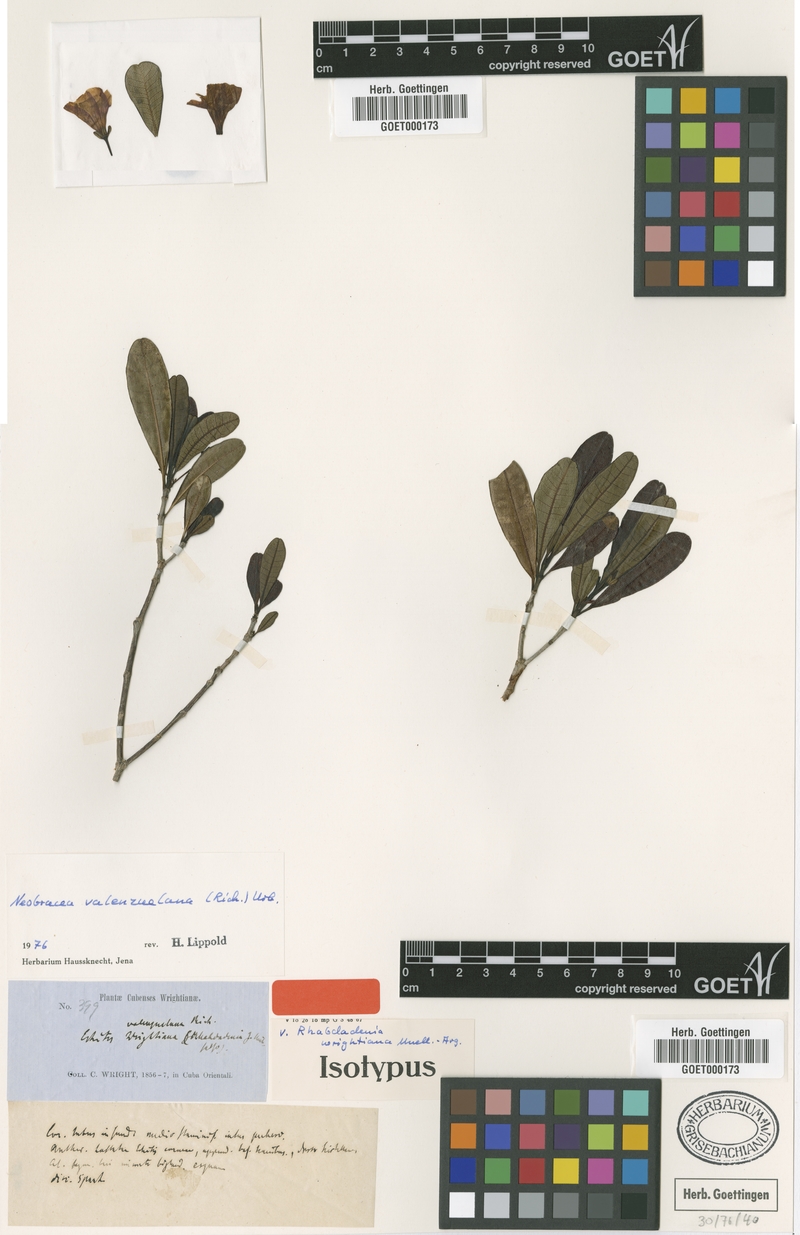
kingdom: Plantae
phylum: Tracheophyta
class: Magnoliopsida
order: Gentianales
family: Apocynaceae
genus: Neobracea
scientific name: Neobracea valenzuelana
